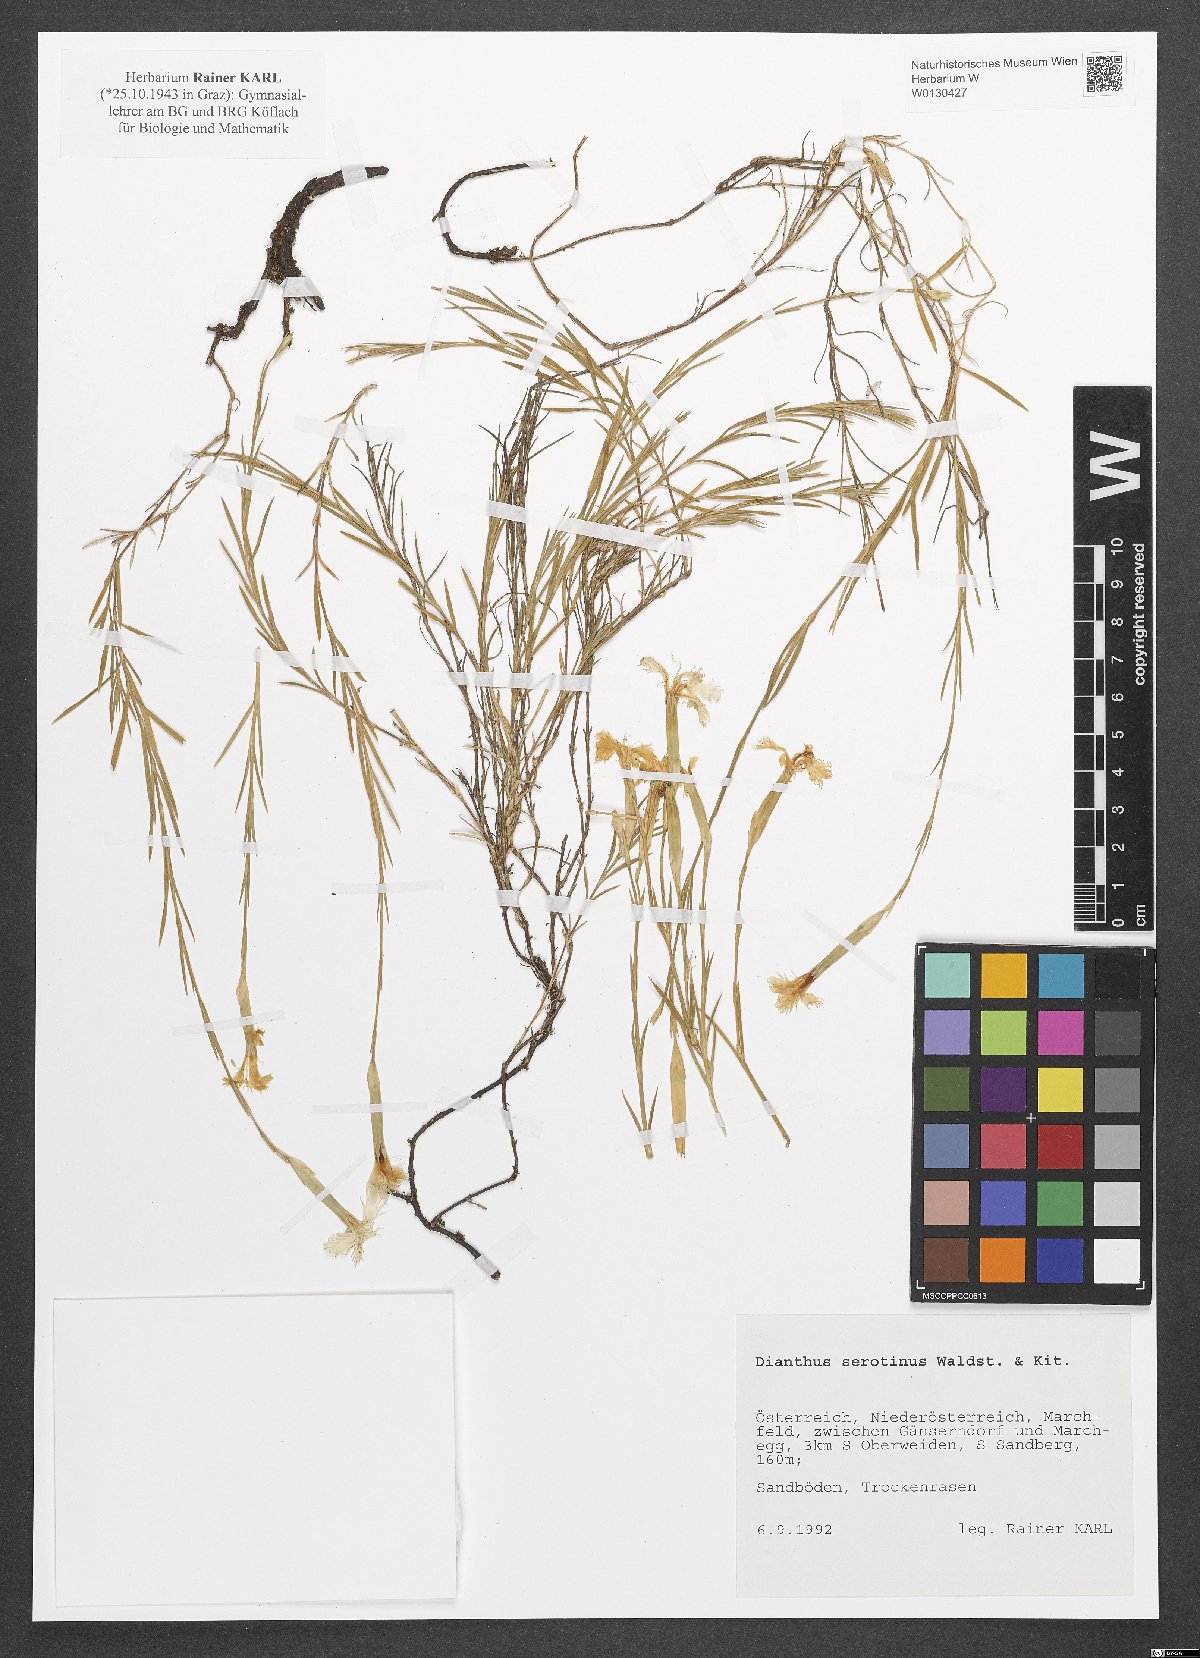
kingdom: Plantae
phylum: Tracheophyta
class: Magnoliopsida
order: Caryophyllales
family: Caryophyllaceae
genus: Dianthus
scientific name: Dianthus serotinus
